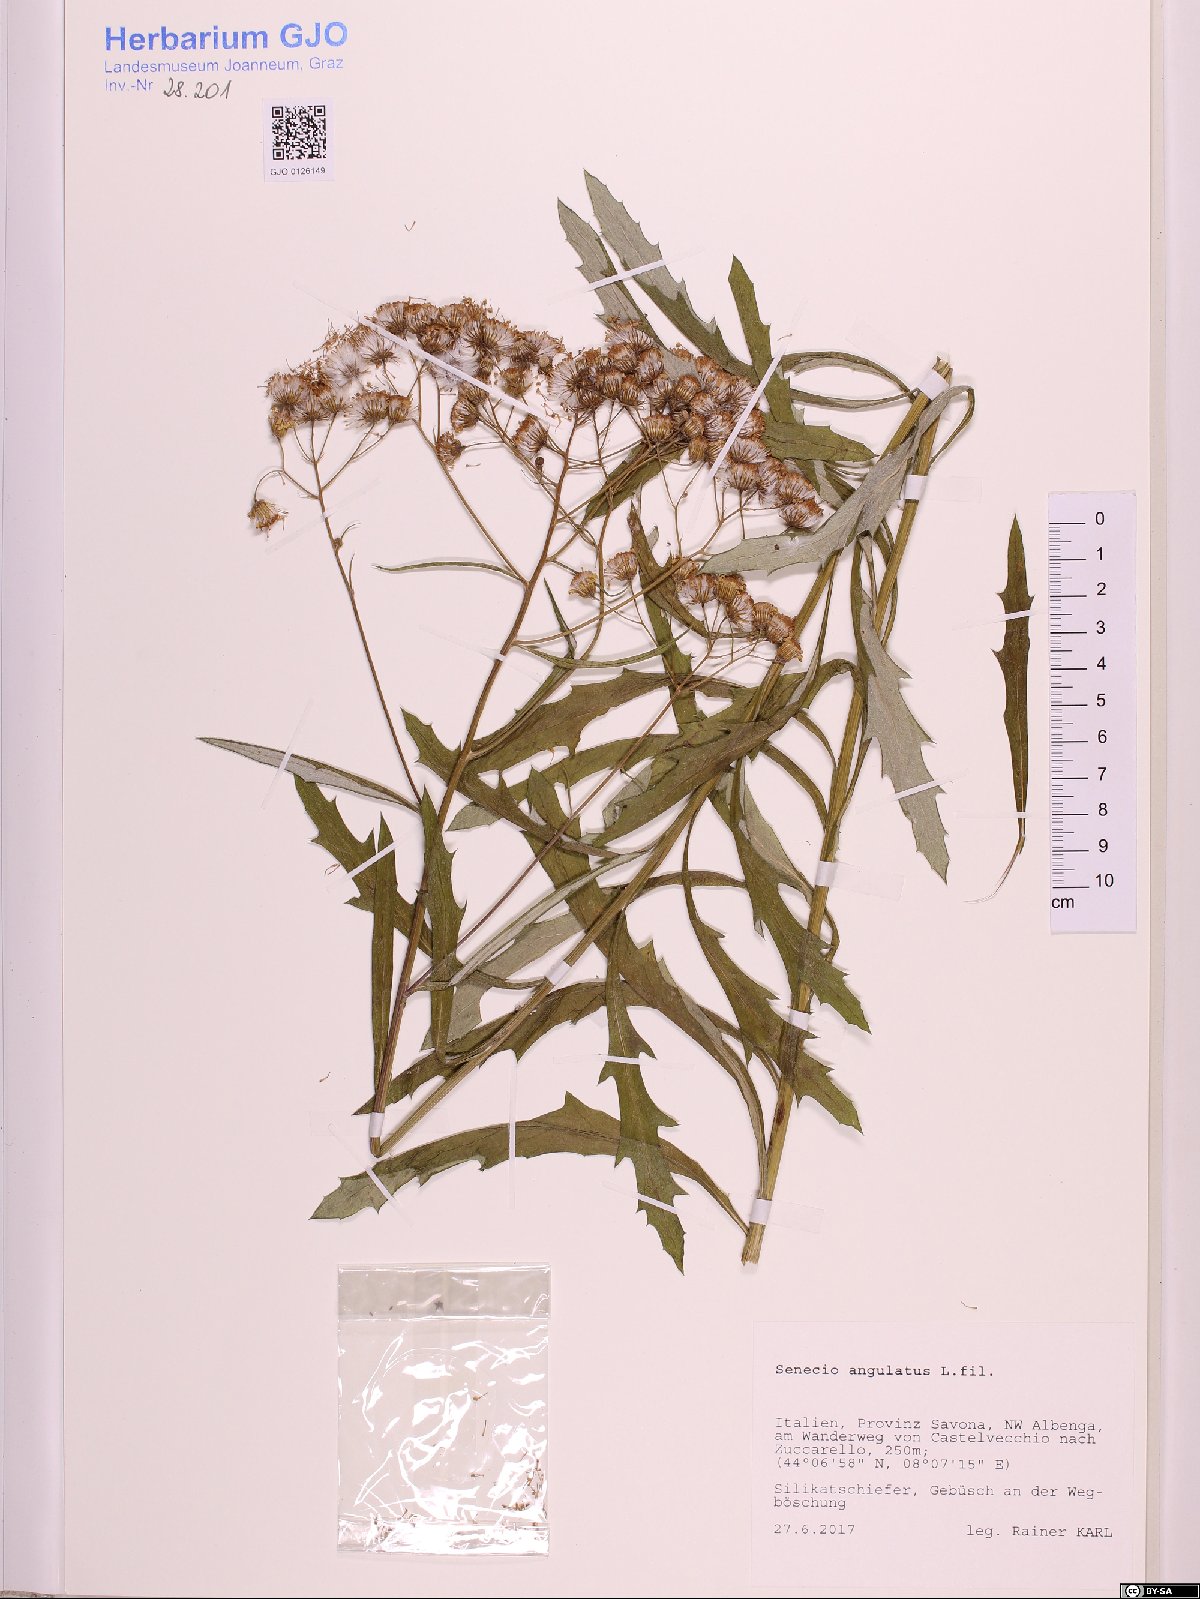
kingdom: Plantae
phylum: Tracheophyta
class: Magnoliopsida
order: Asterales
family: Asteraceae
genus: Senecio
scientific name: Senecio angulatus
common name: Climbing groundsel
